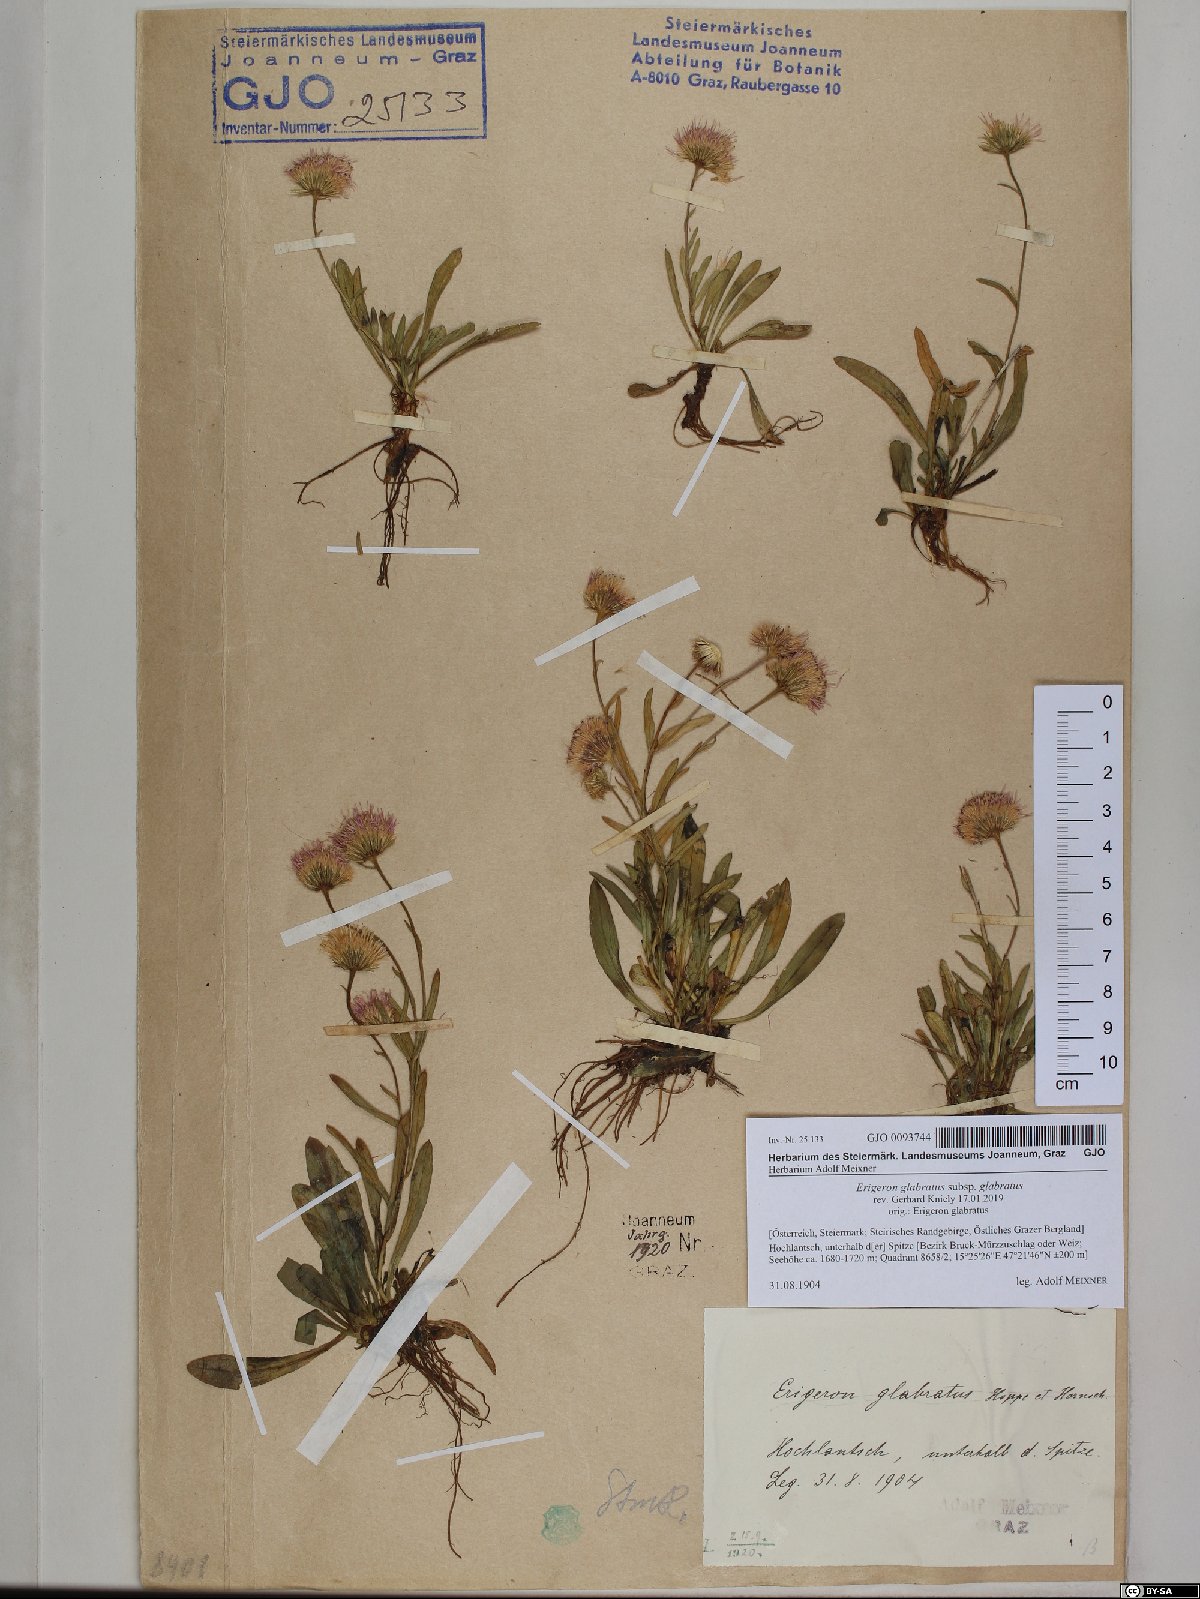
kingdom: Plantae
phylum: Tracheophyta
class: Magnoliopsida
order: Asterales
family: Asteraceae
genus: Erigeron
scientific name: Erigeron glabratus
